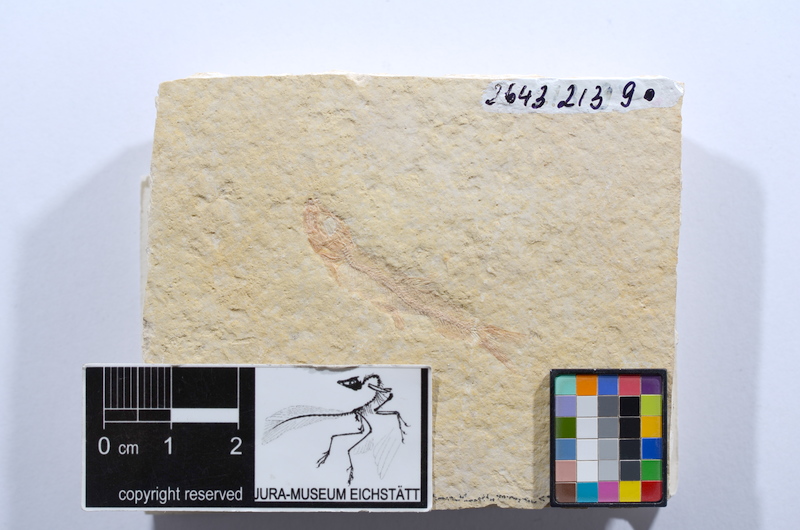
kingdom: Animalia
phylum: Chordata
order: Salmoniformes
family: Orthogonikleithridae
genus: Leptolepides
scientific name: Leptolepides sprattiformis
